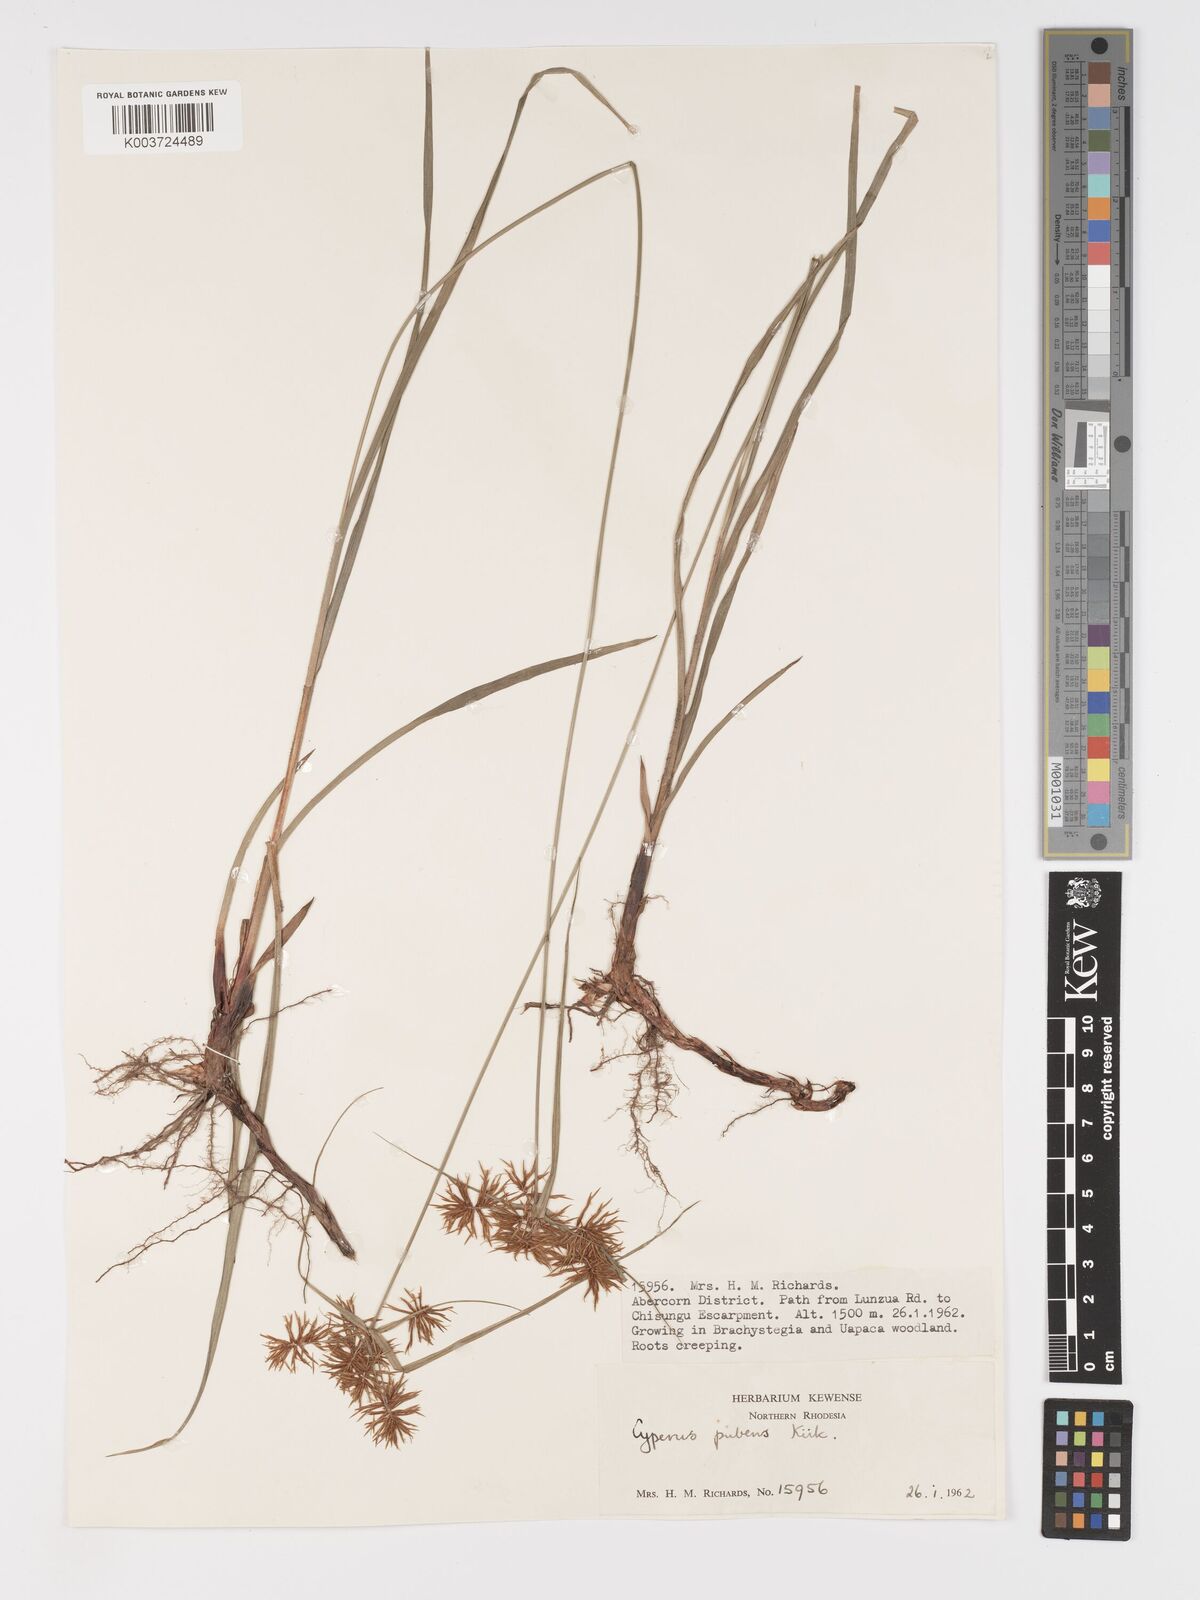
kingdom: Plantae
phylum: Tracheophyta
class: Liliopsida
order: Poales
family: Cyperaceae
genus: Cyperus
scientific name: Cyperus pubens
